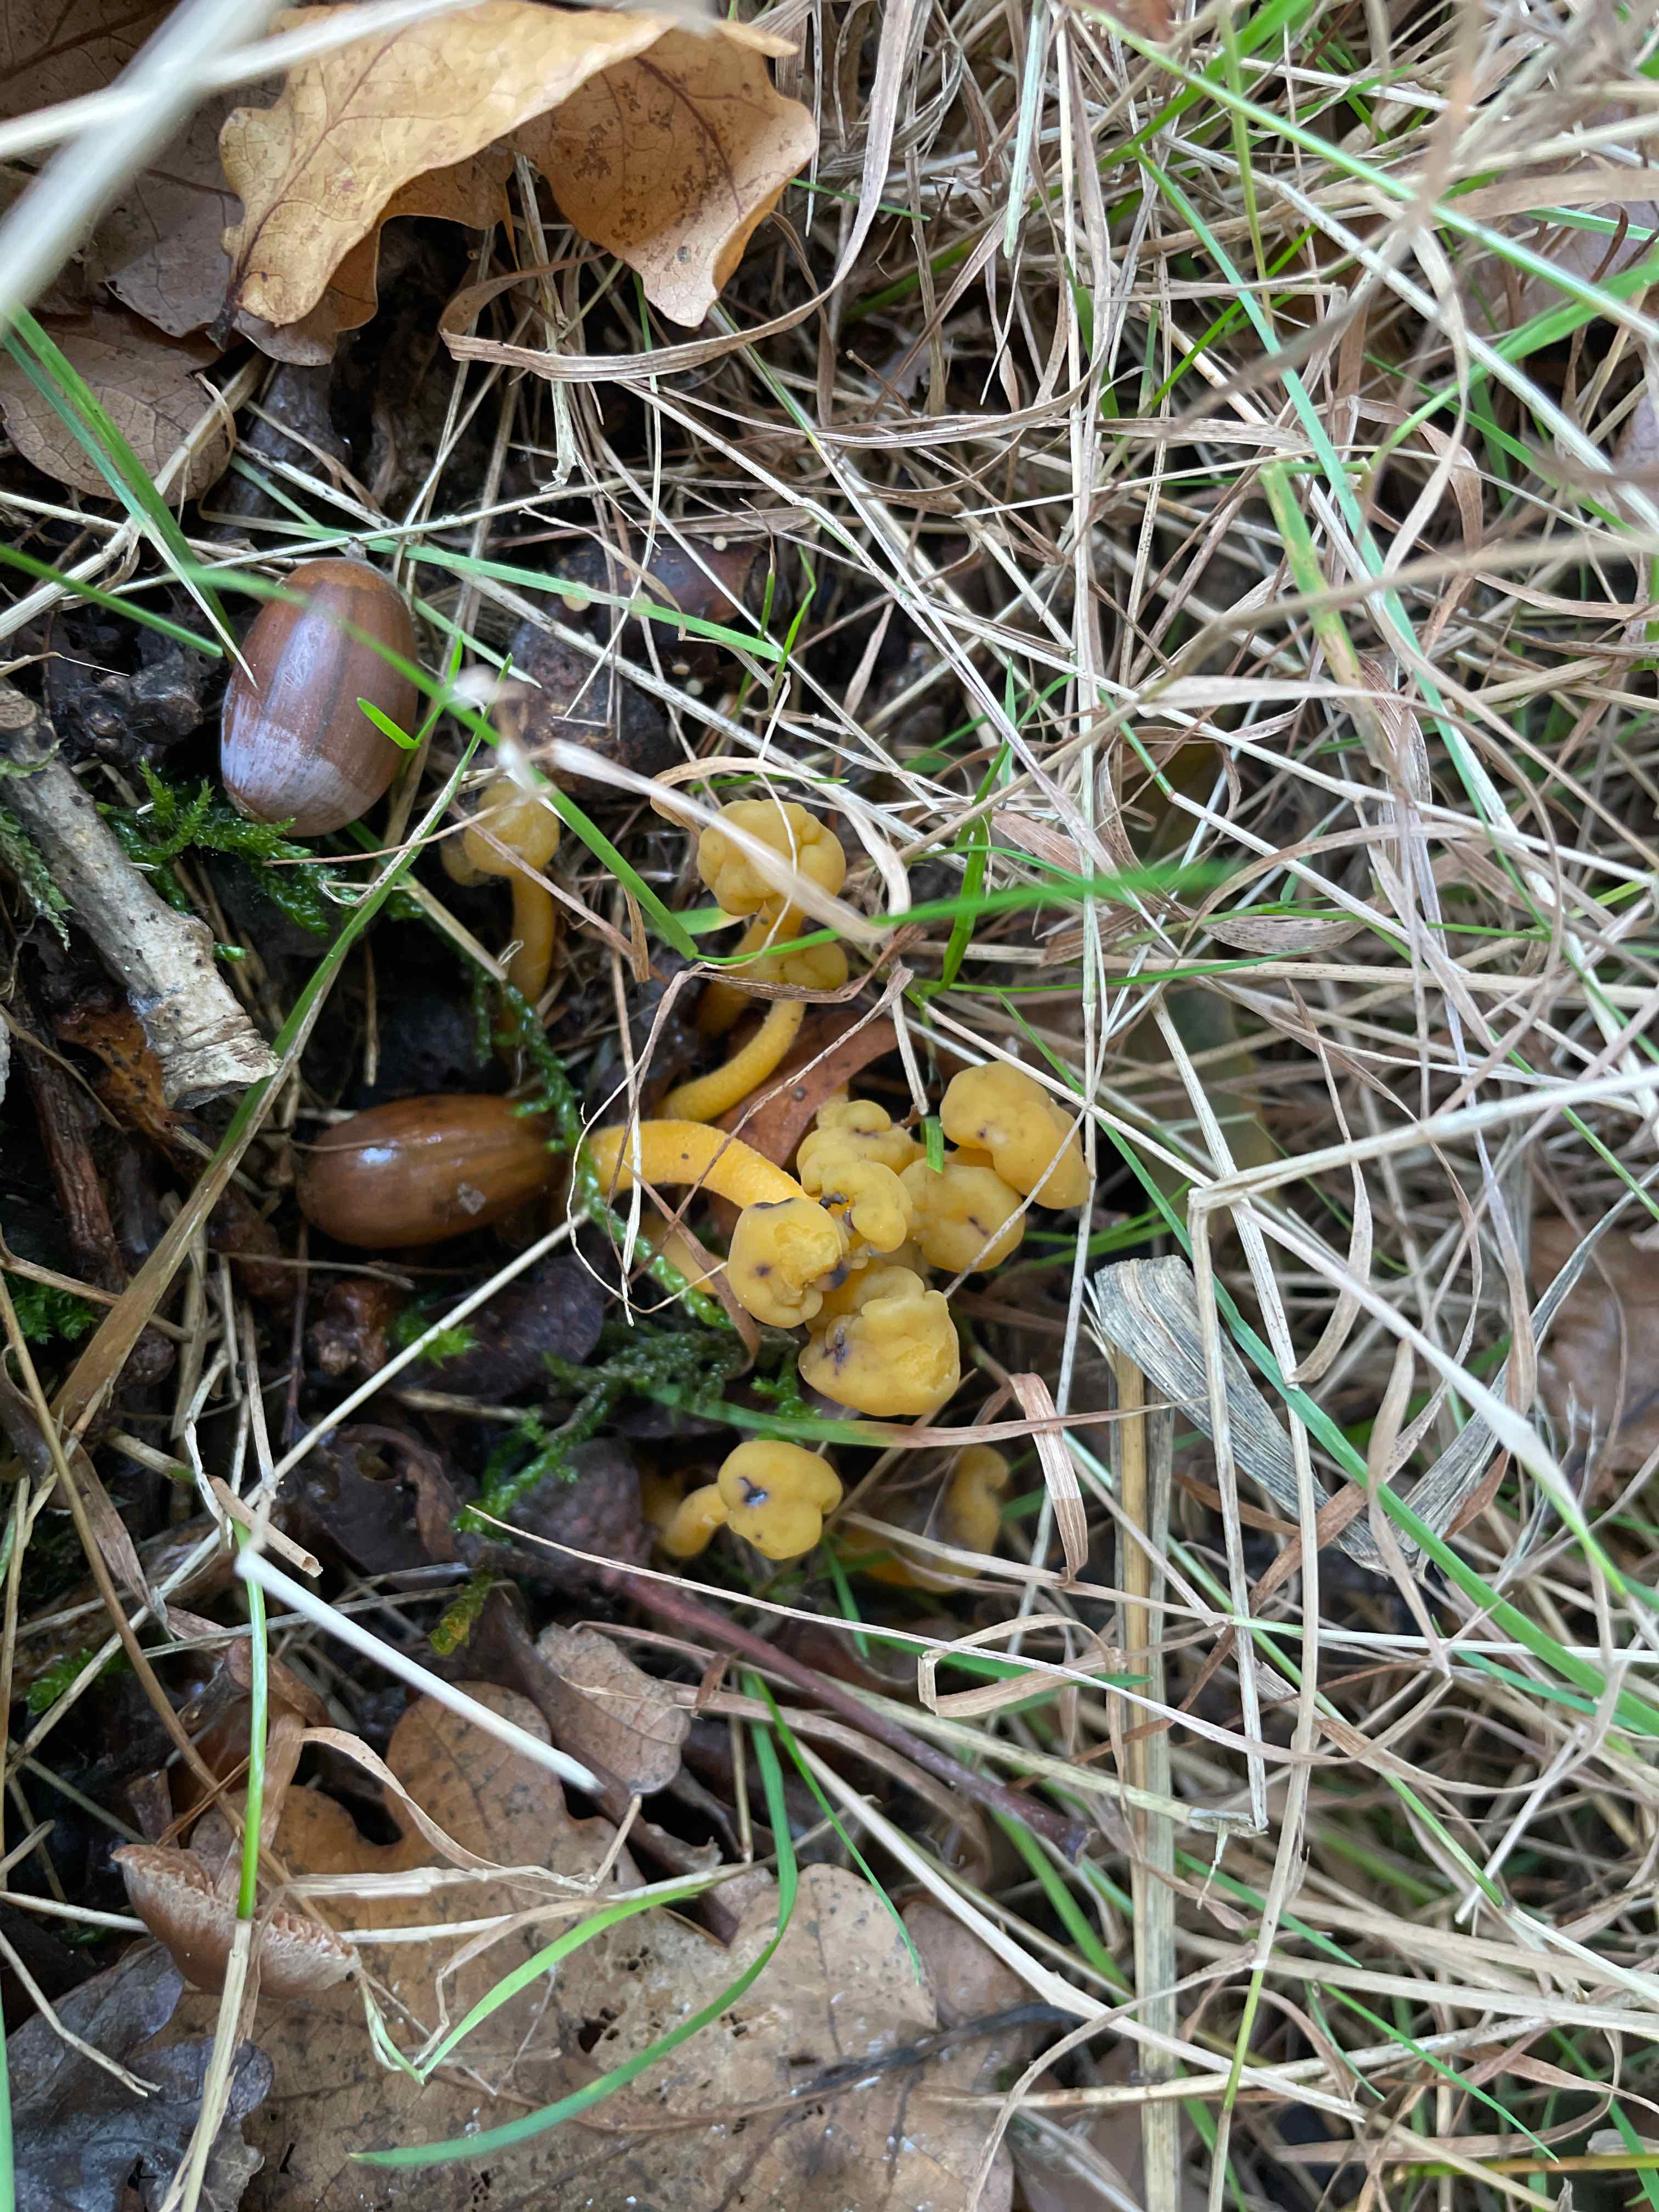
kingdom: Fungi
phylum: Ascomycota
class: Leotiomycetes
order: Leotiales
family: Leotiaceae
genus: Leotia
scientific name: Leotia lubrica
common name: ravsvamp
